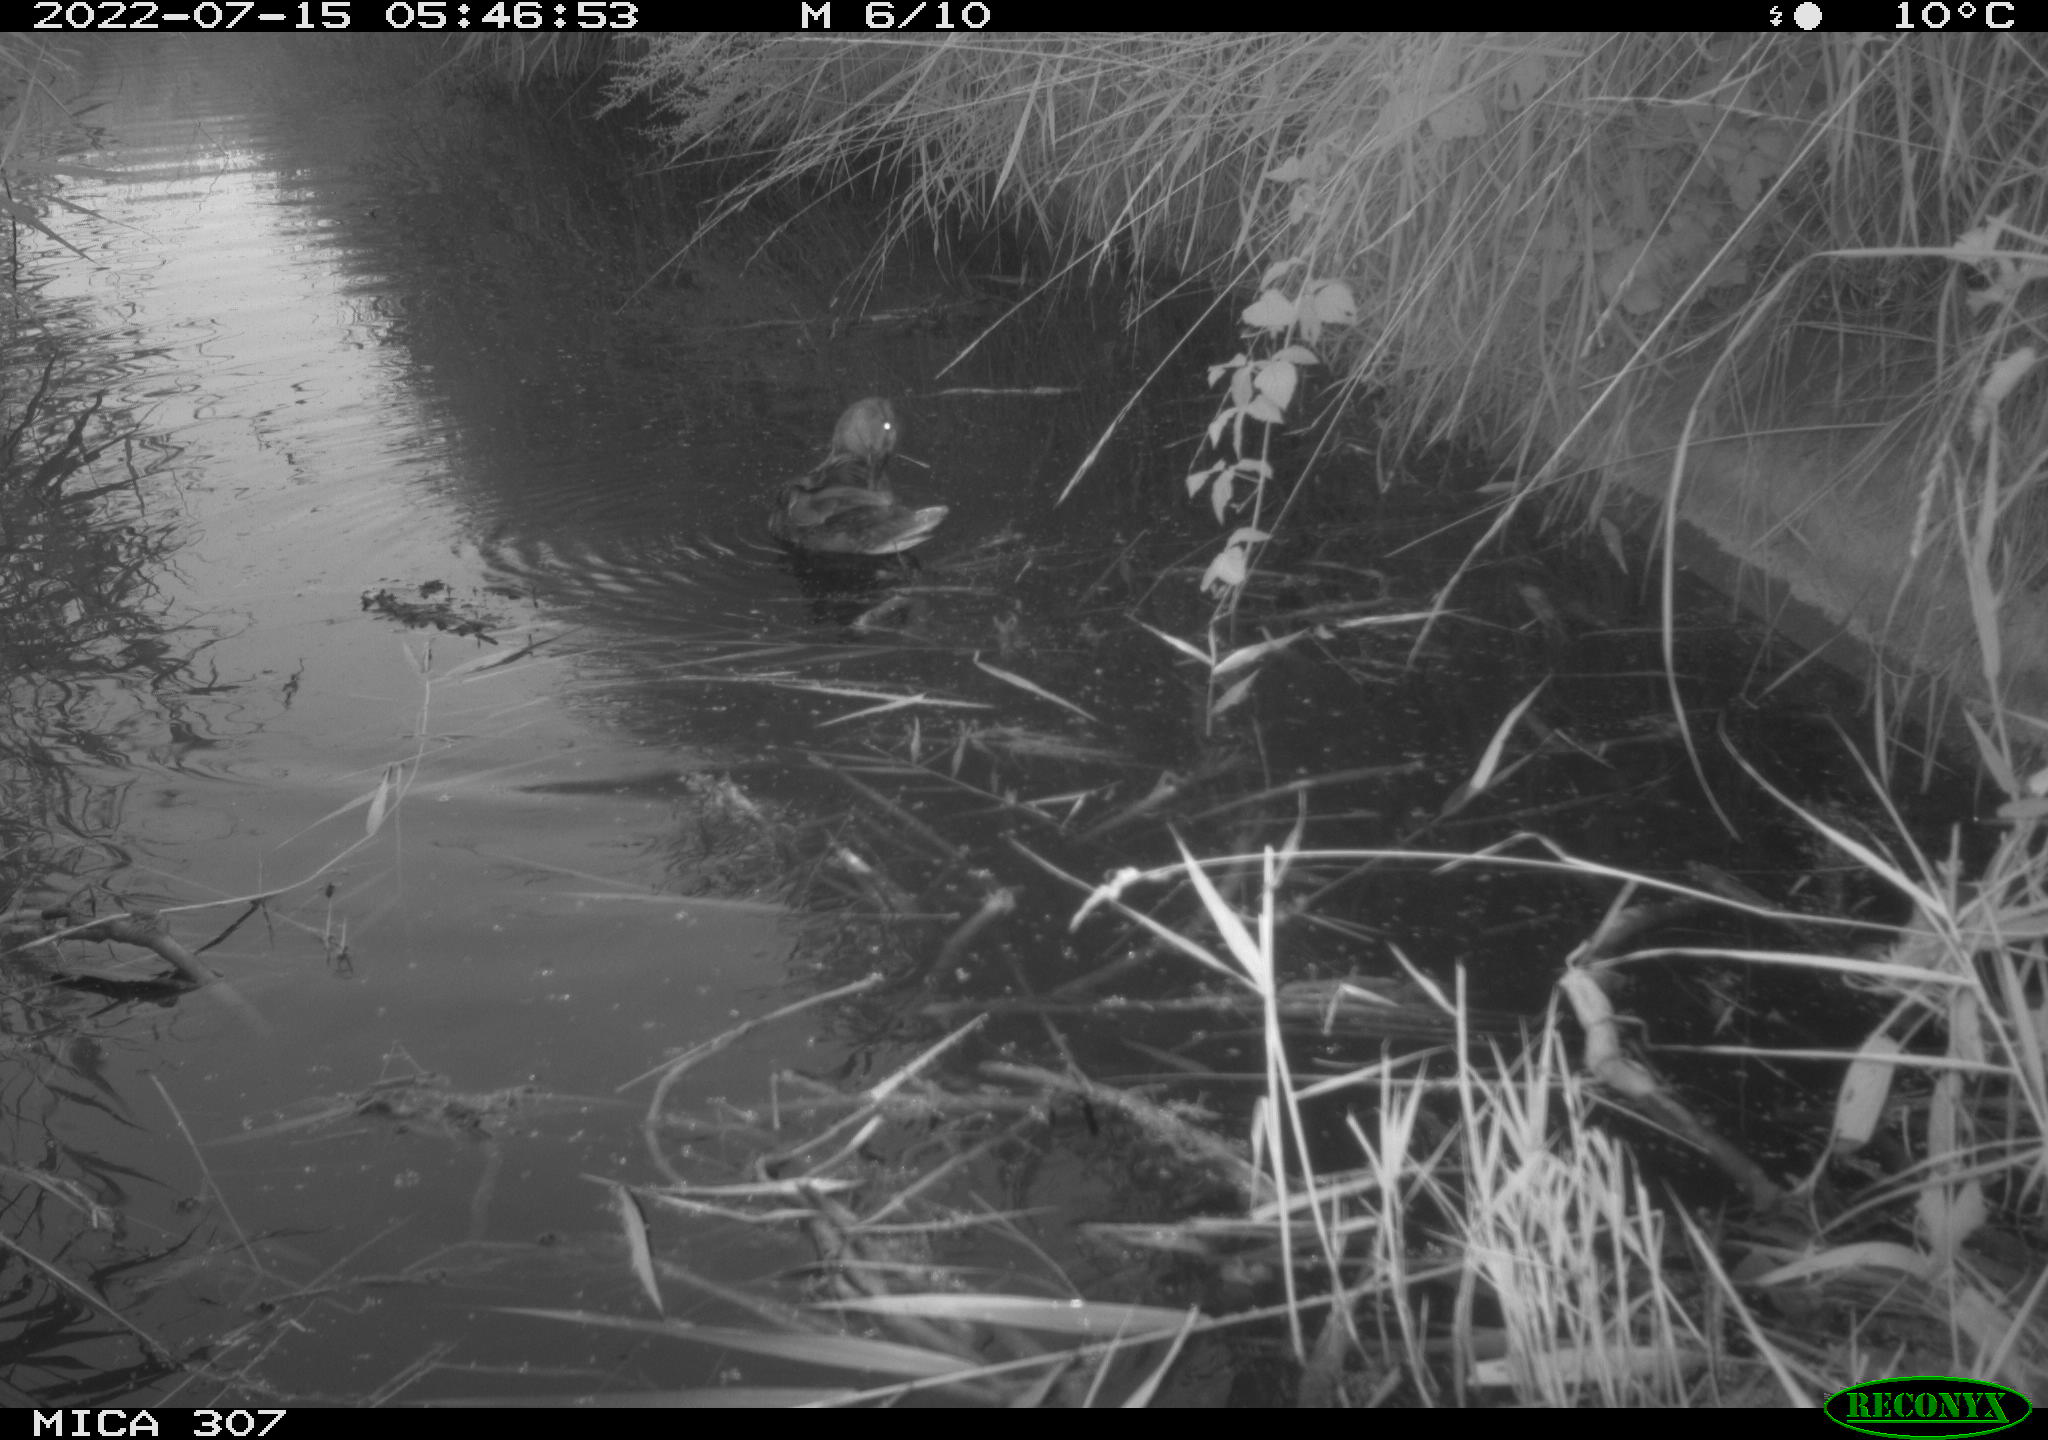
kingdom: Animalia
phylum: Chordata
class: Aves
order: Anseriformes
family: Anatidae
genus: Anas
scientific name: Anas platyrhynchos
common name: Mallard
